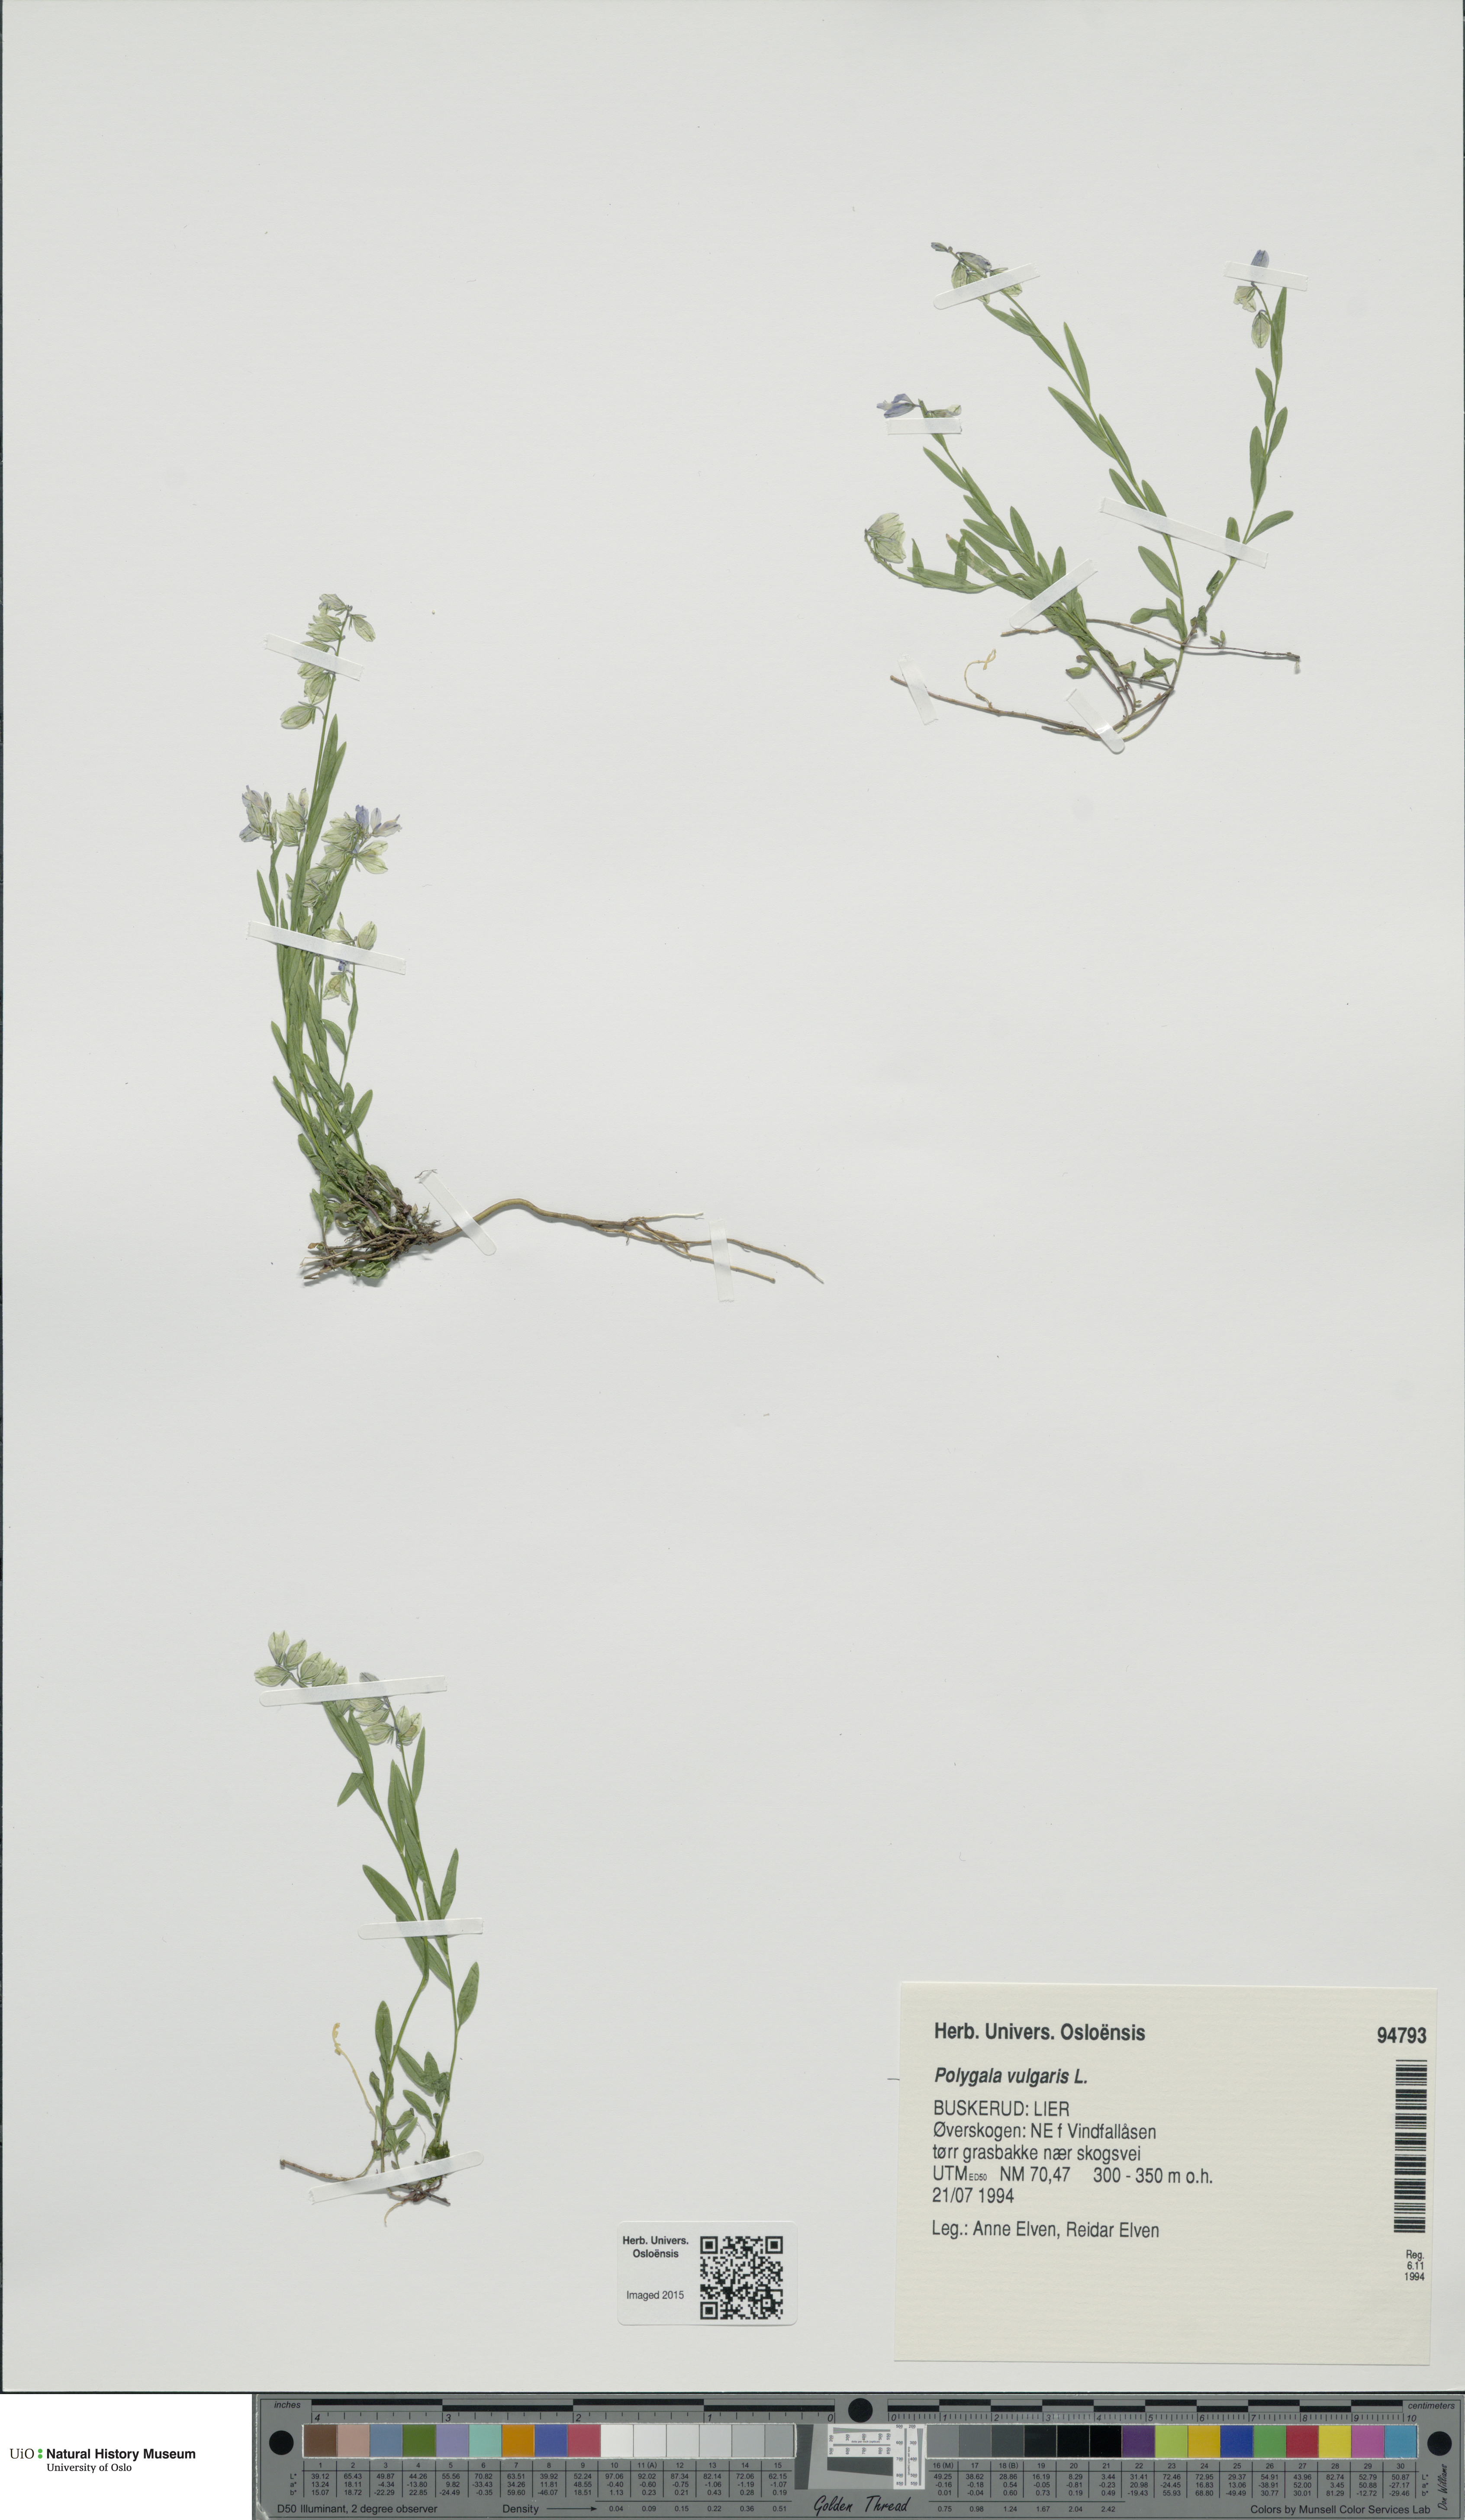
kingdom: Plantae
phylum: Tracheophyta
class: Magnoliopsida
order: Fabales
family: Polygalaceae
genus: Polygala
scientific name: Polygala vulgaris
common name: Common milkwort
